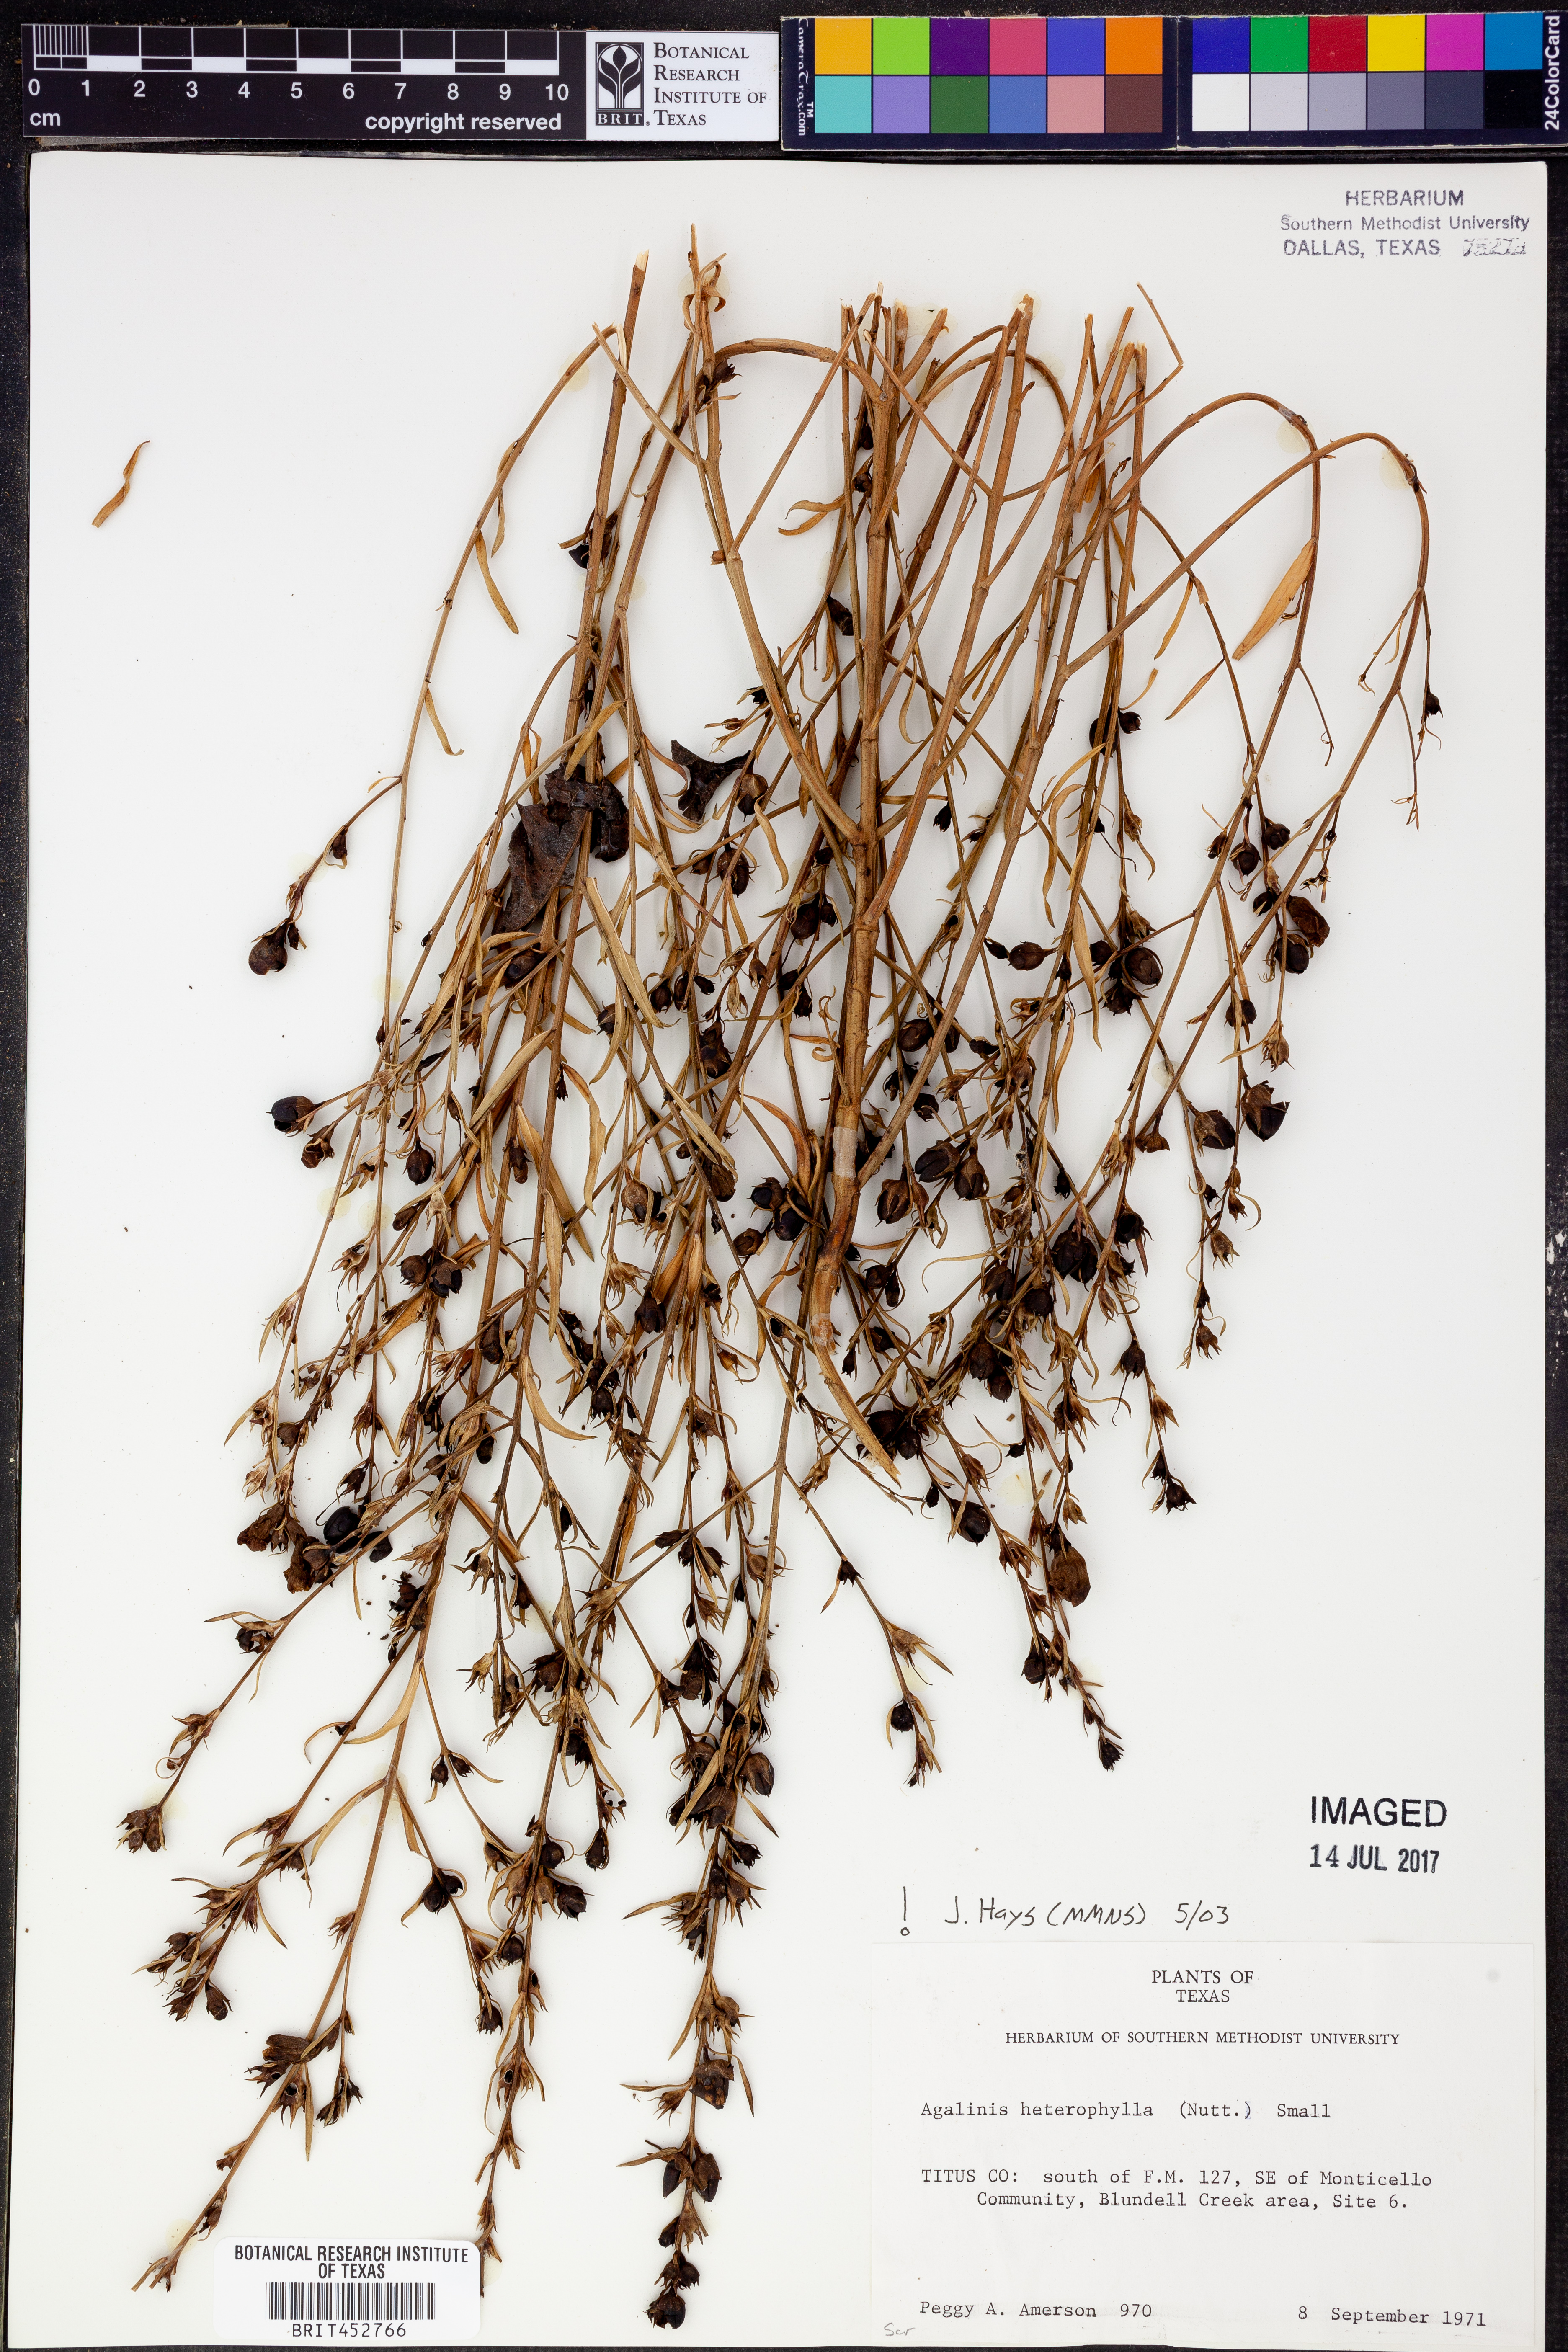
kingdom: Plantae
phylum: Tracheophyta
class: Magnoliopsida
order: Lamiales
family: Orobanchaceae
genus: Agalinis
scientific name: Agalinis heterophylla
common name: Prairie agalinis
